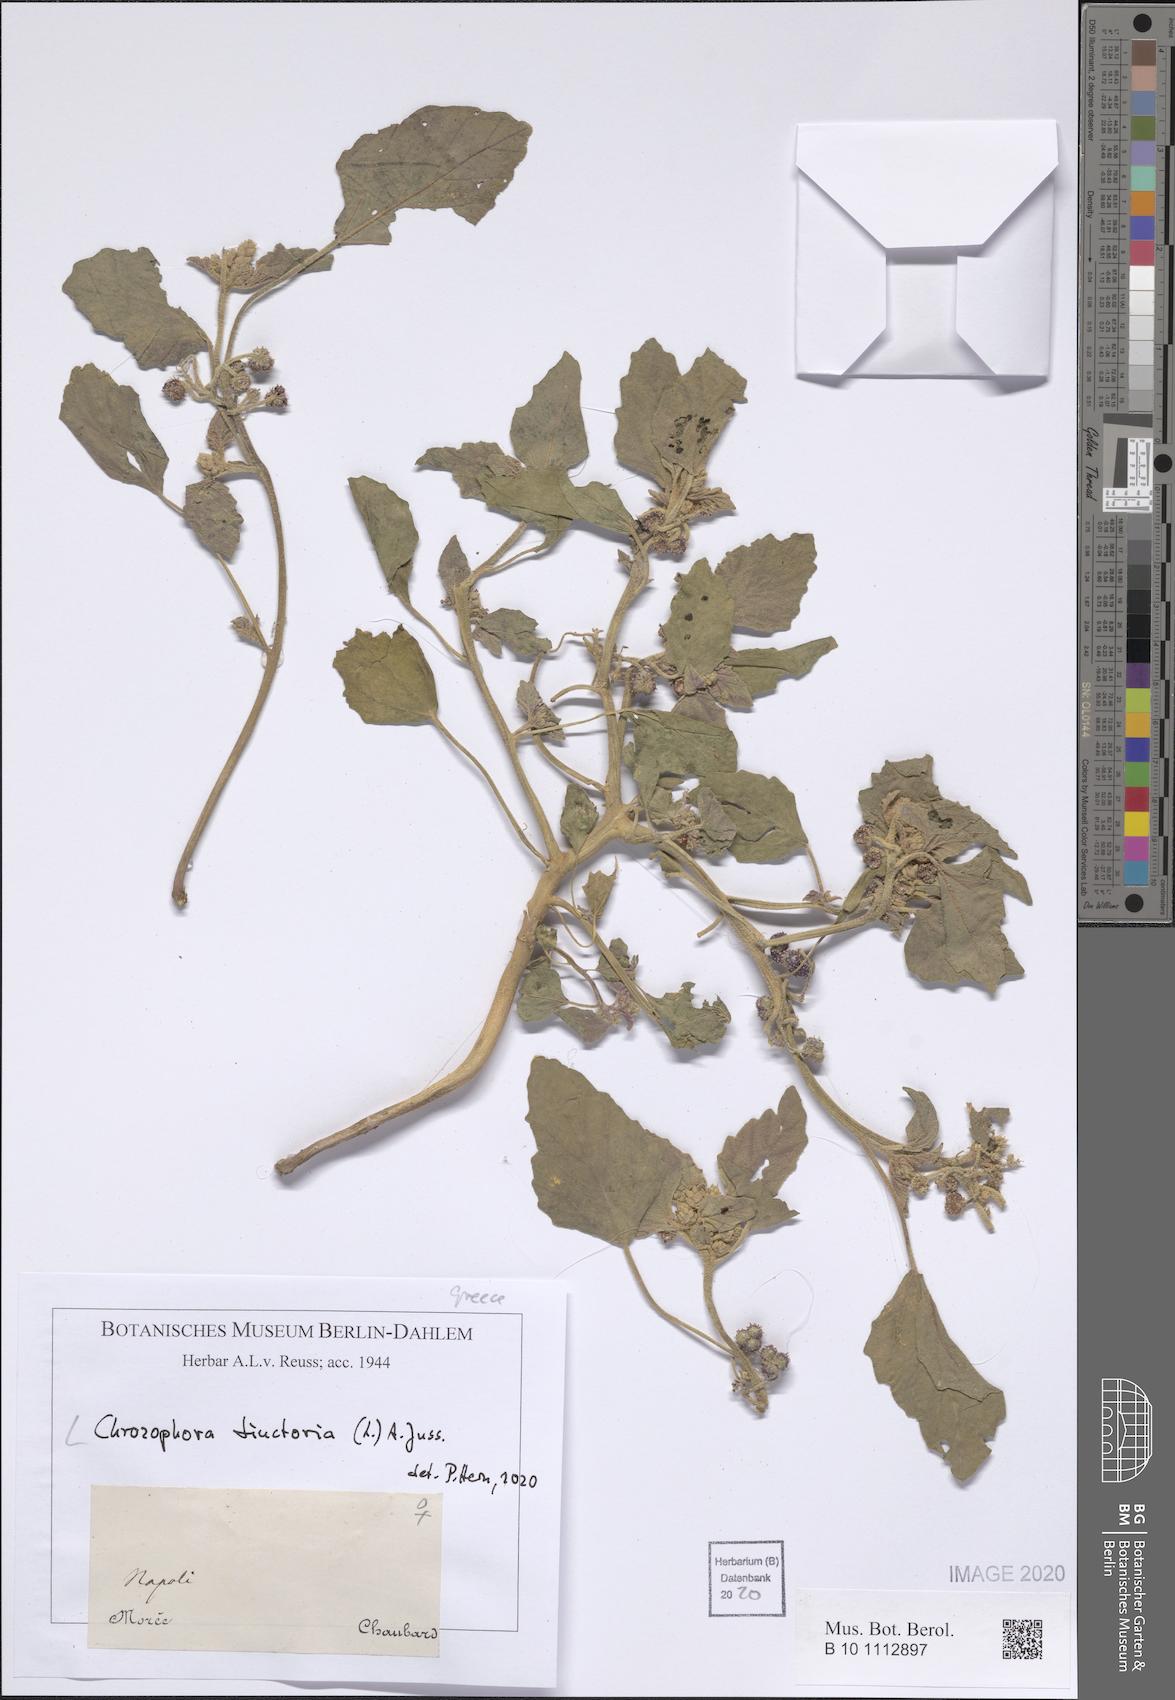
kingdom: Plantae
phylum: Tracheophyta
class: Magnoliopsida
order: Malpighiales
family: Euphorbiaceae
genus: Chrozophora
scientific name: Chrozophora tinctoria
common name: Dyer's litmus
